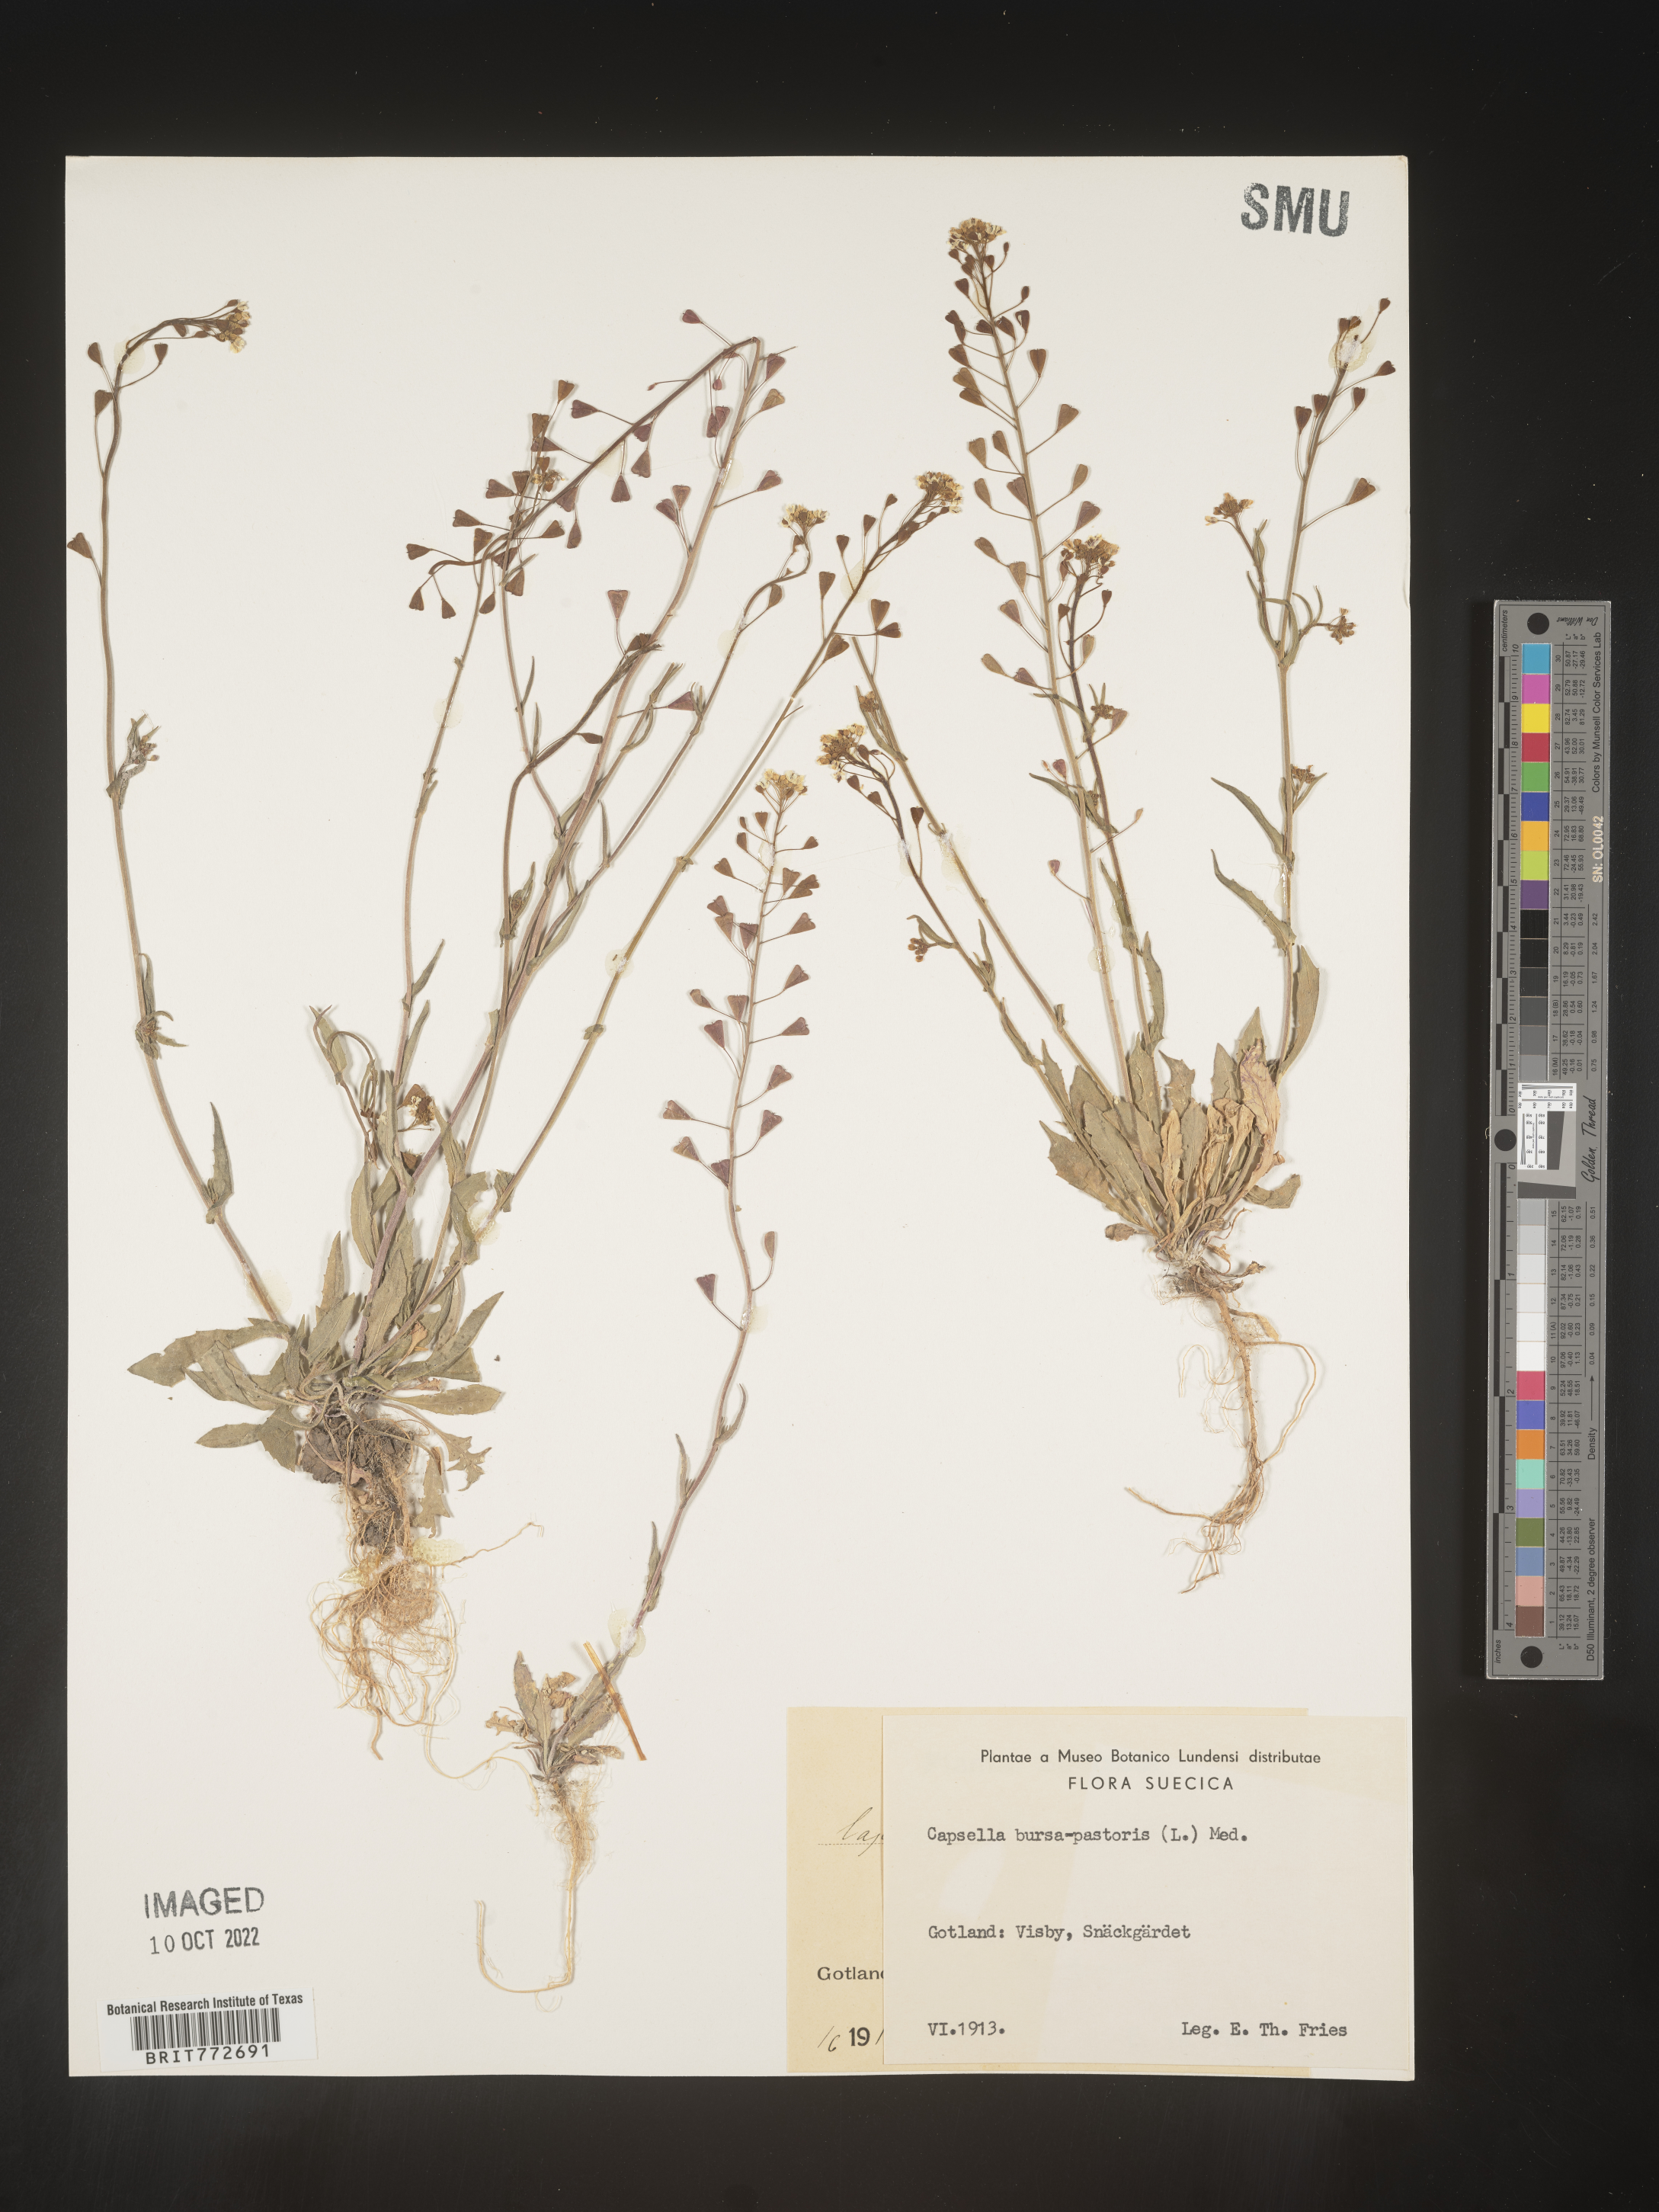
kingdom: Plantae
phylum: Tracheophyta
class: Magnoliopsida
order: Brassicales
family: Brassicaceae
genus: Capsella
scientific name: Capsella
